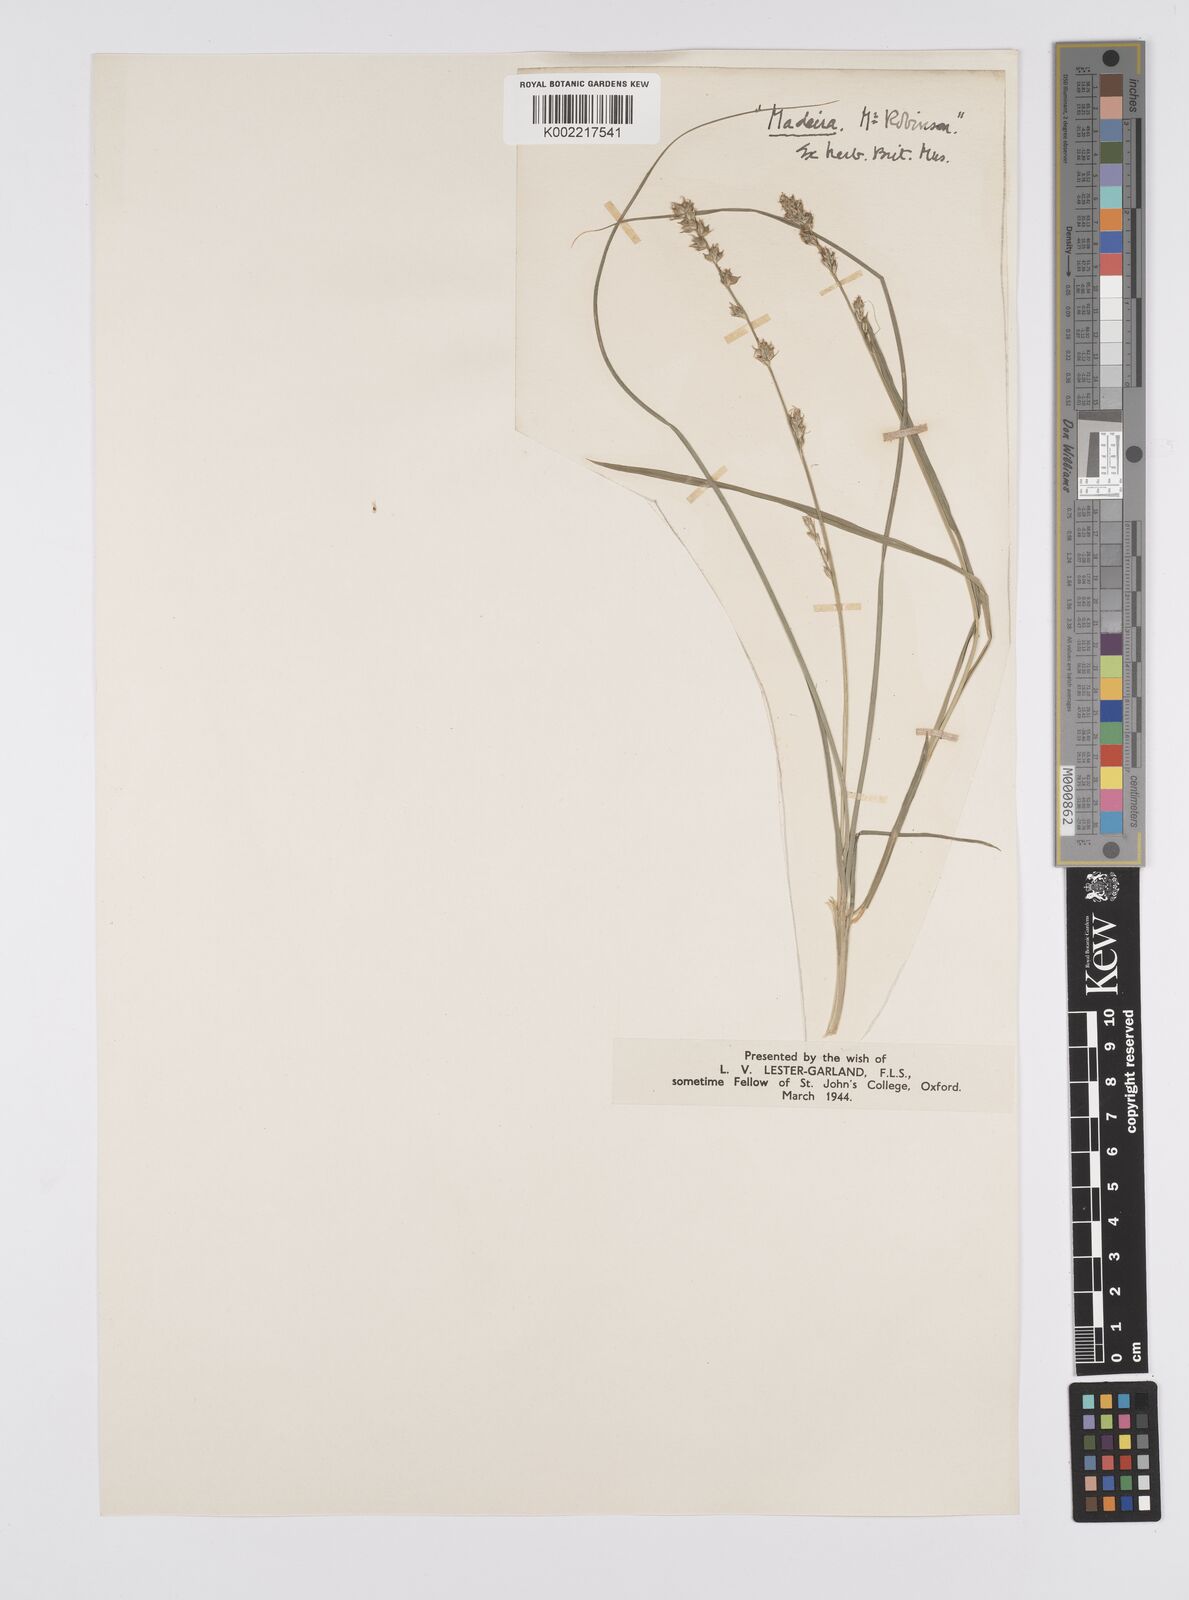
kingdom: Plantae
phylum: Tracheophyta
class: Liliopsida
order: Poales
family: Cyperaceae
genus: Carex
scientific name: Carex divulsa
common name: Grassland sedge
